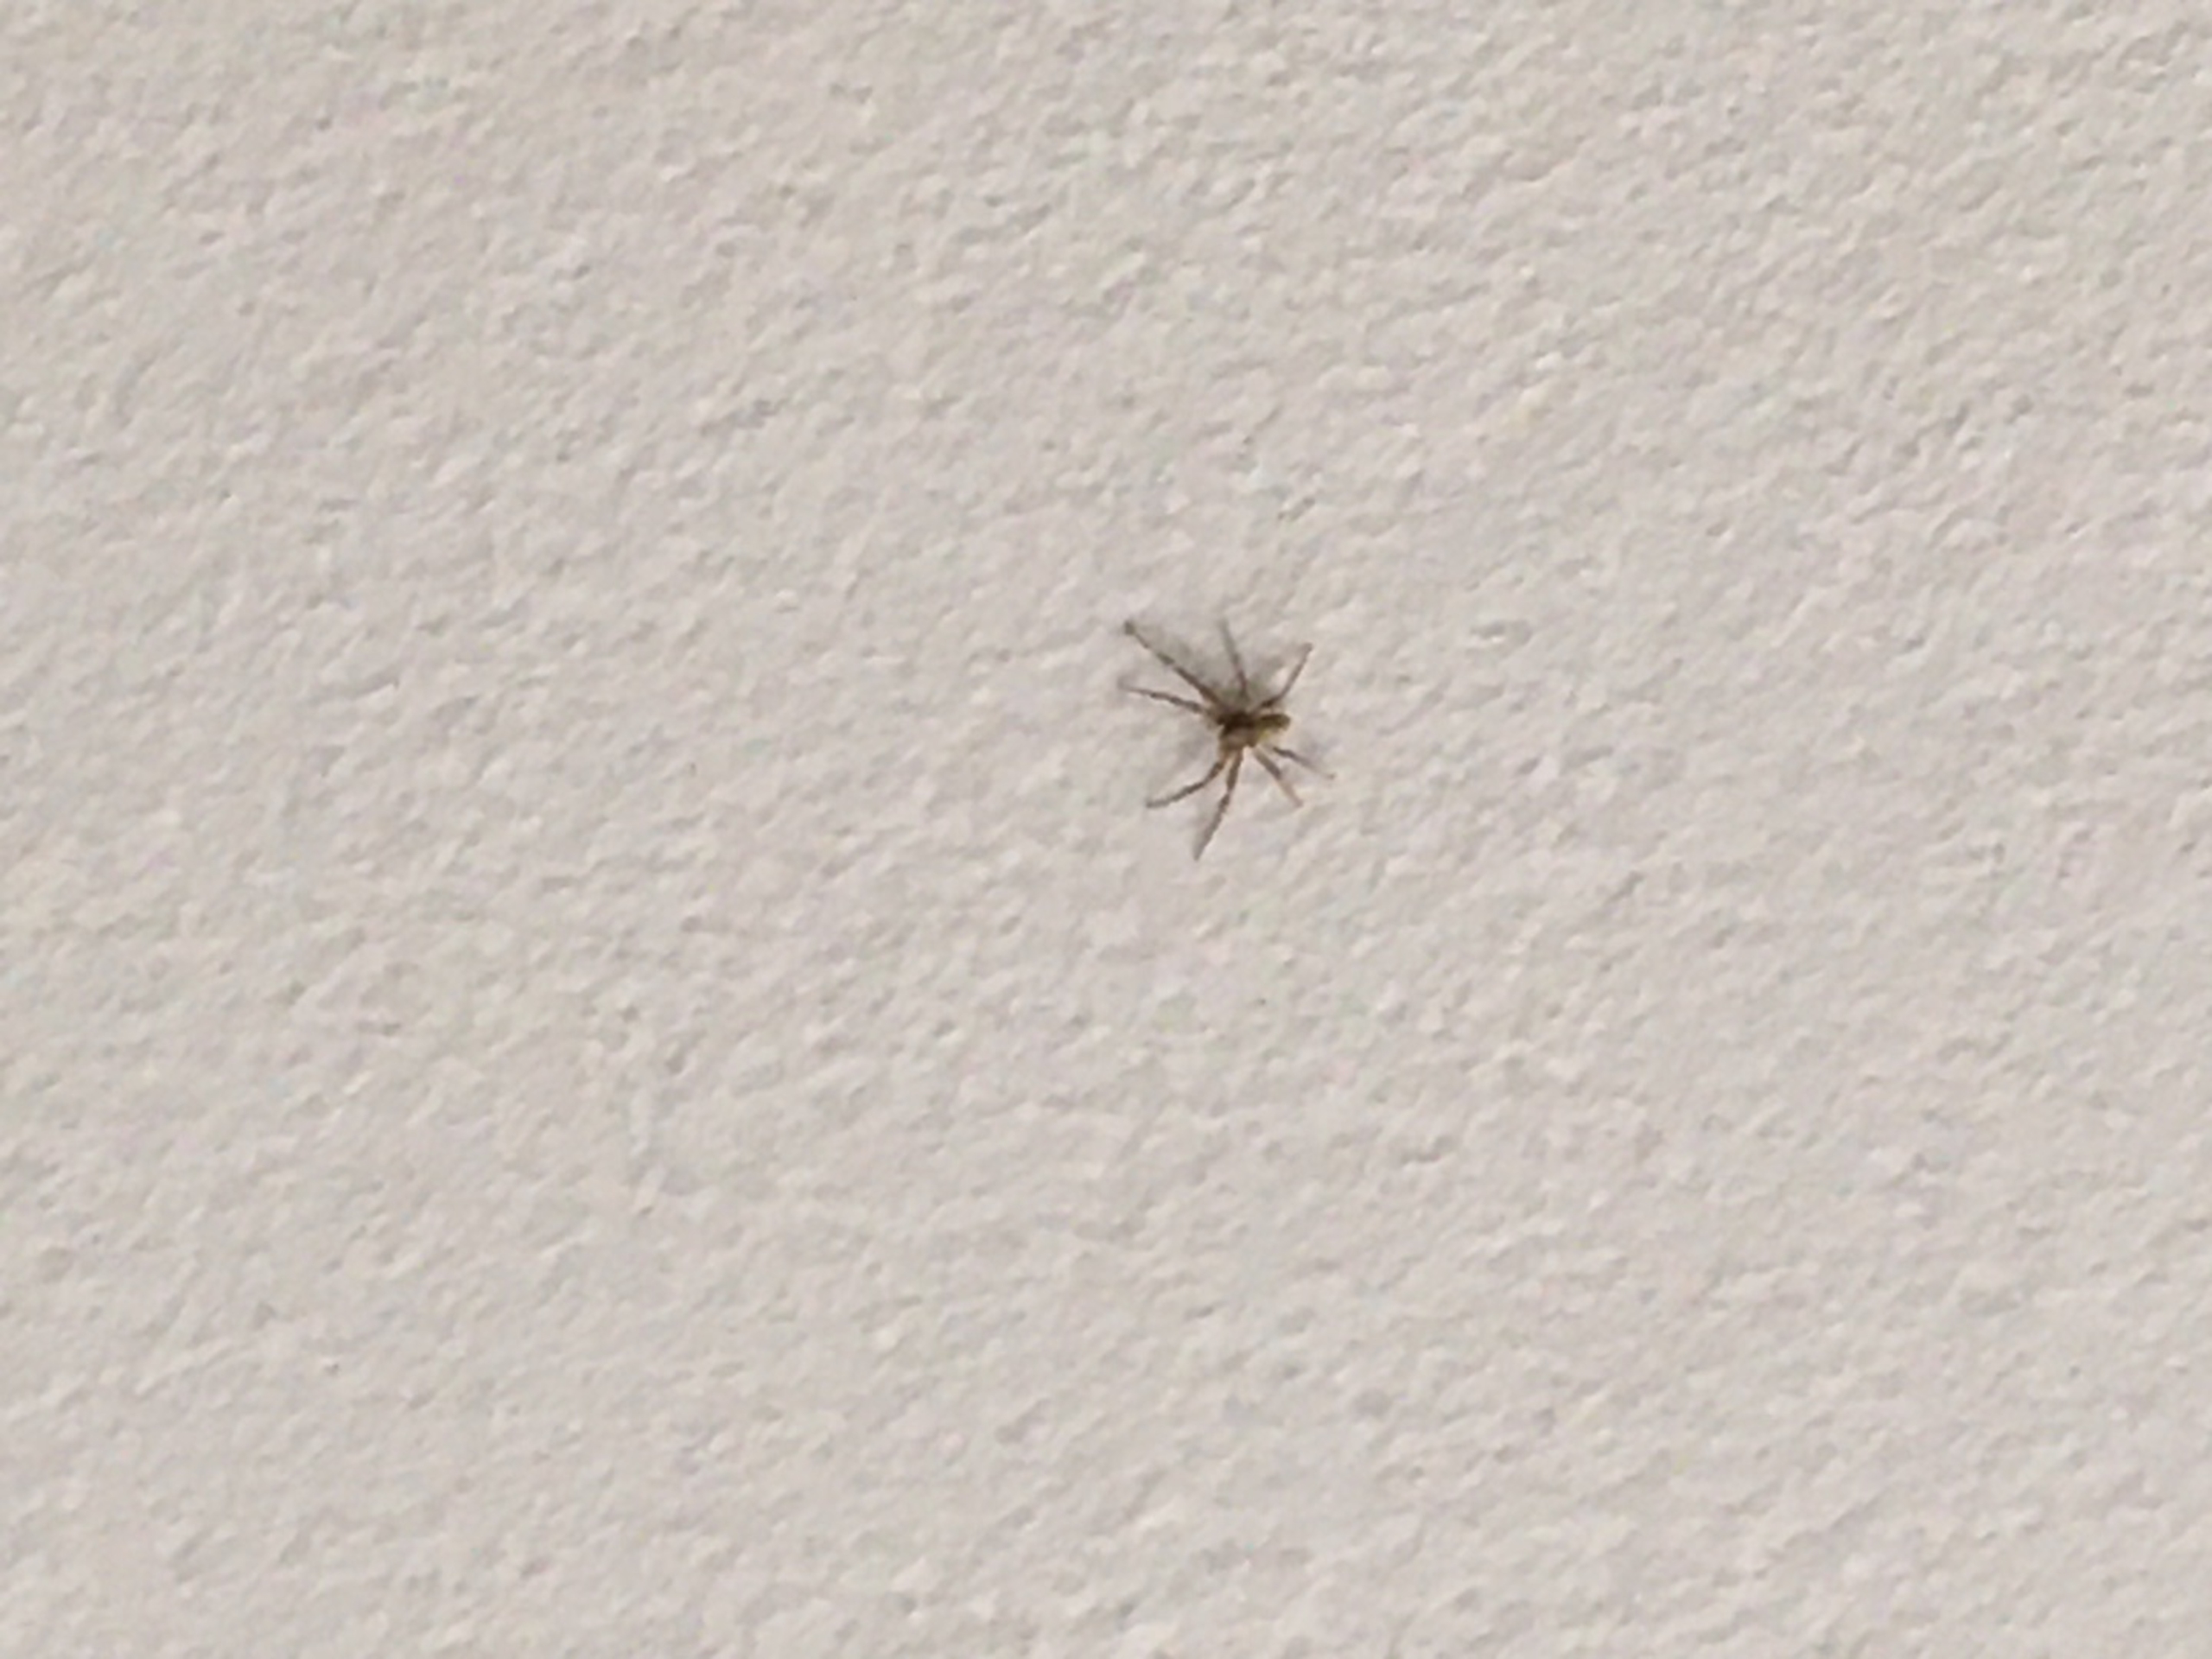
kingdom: Animalia
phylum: Arthropoda
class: Arachnida
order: Araneae
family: Philodromidae
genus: Philodromus
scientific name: Philodromus
